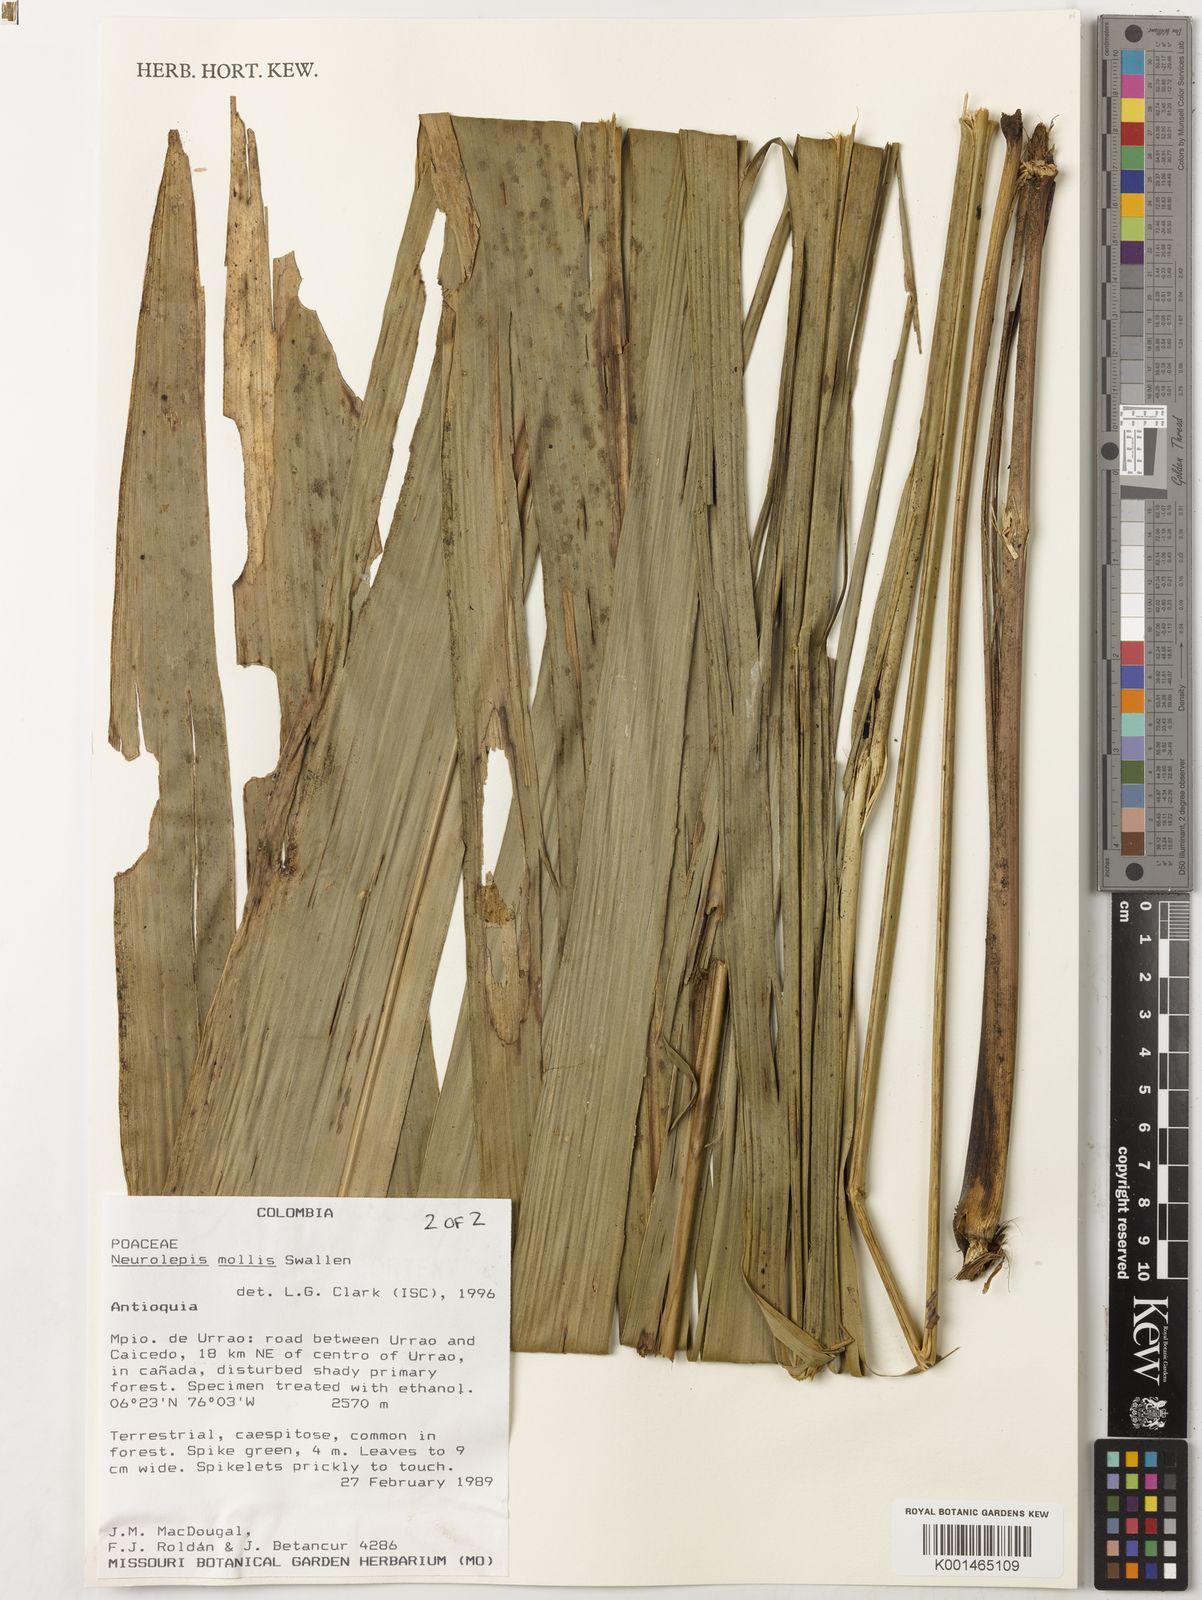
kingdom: Plantae
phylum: Tracheophyta
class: Liliopsida
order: Poales
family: Poaceae
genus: Chusquea
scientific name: Chusquea mollis
